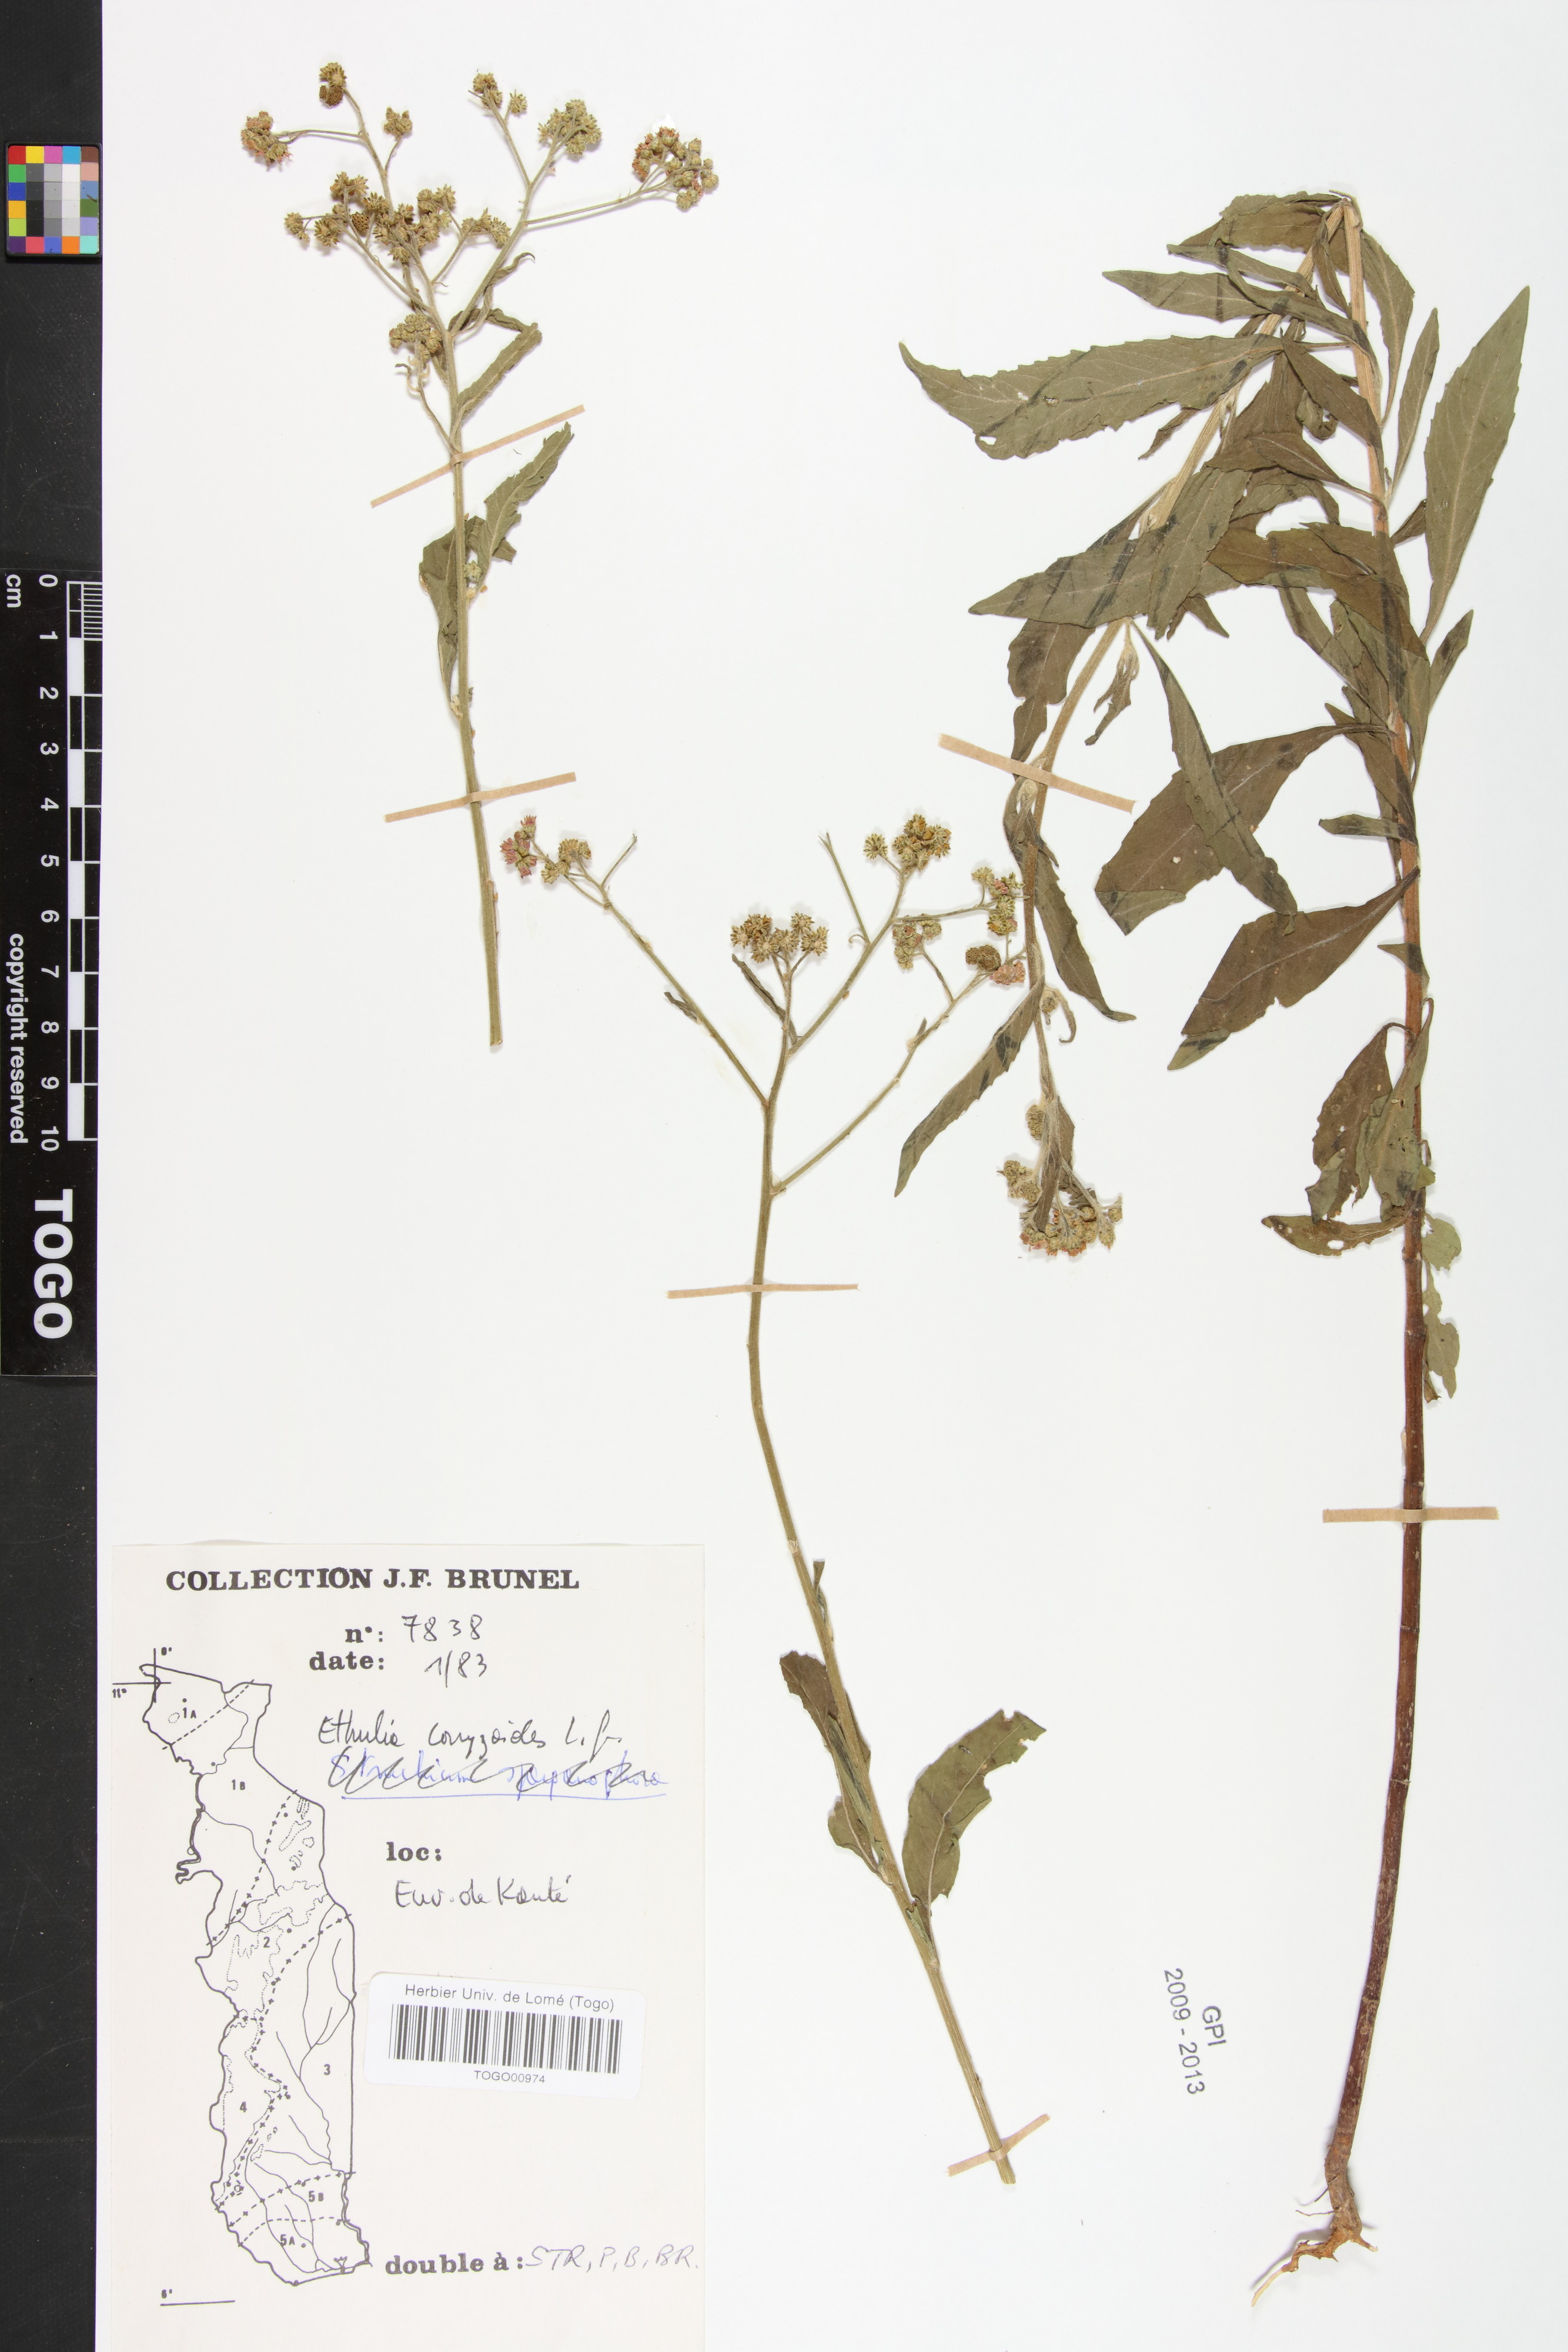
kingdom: Plantae
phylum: Tracheophyta
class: Magnoliopsida
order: Asterales
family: Asteraceae
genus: Ethulia
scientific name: Ethulia conyzoides
